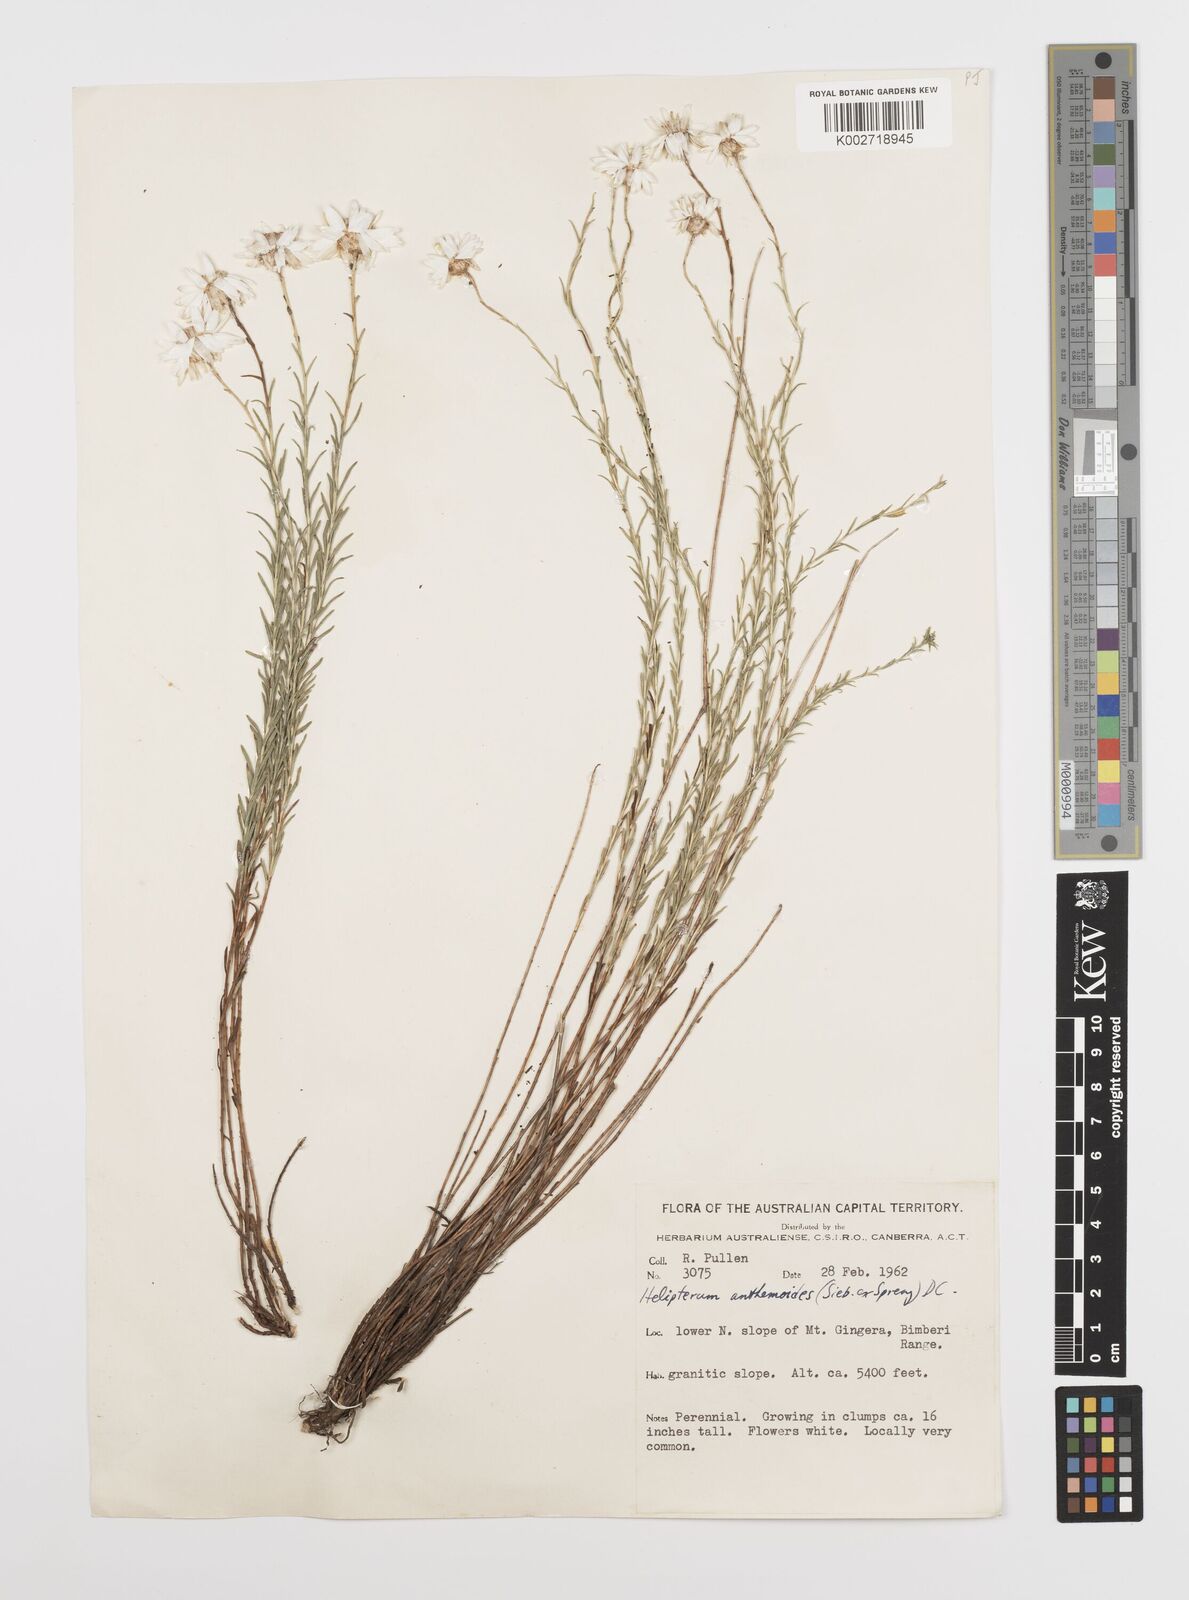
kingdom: Plantae
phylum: Tracheophyta
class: Magnoliopsida
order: Asterales
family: Asteraceae
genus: Rhodanthe
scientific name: Rhodanthe anthemoides
